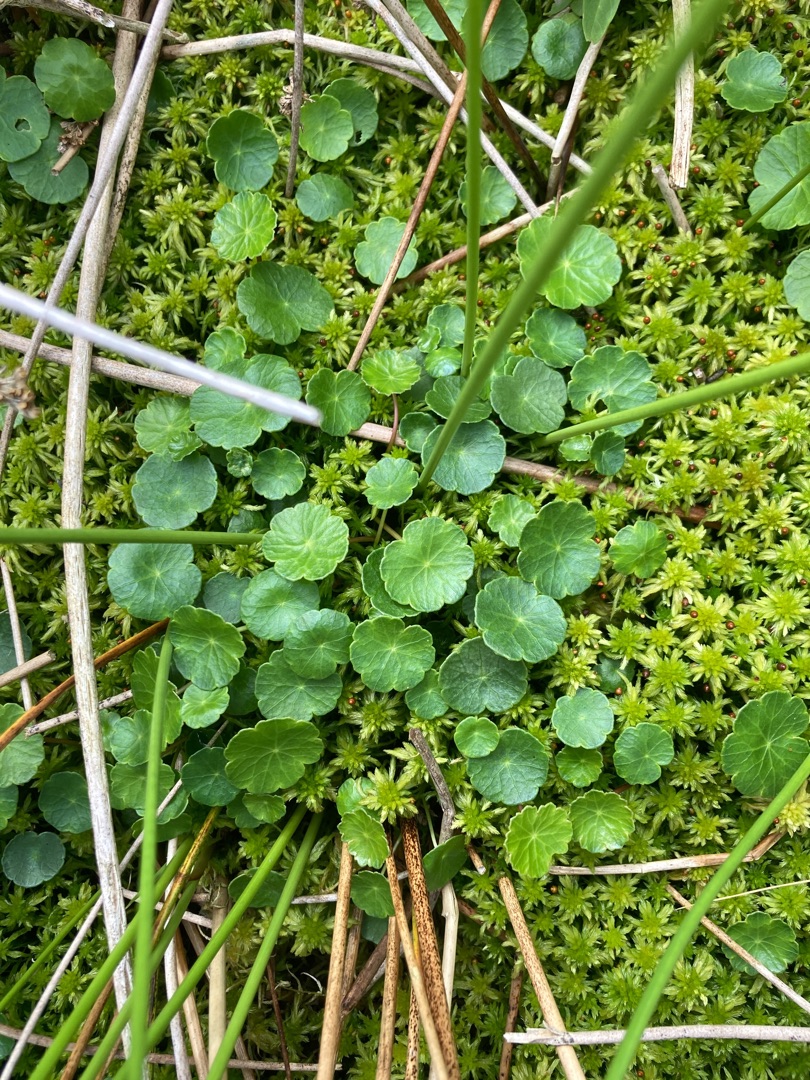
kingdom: Plantae
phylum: Tracheophyta
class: Magnoliopsida
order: Apiales
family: Araliaceae
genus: Hydrocotyle
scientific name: Hydrocotyle vulgaris
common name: Vandnavle
